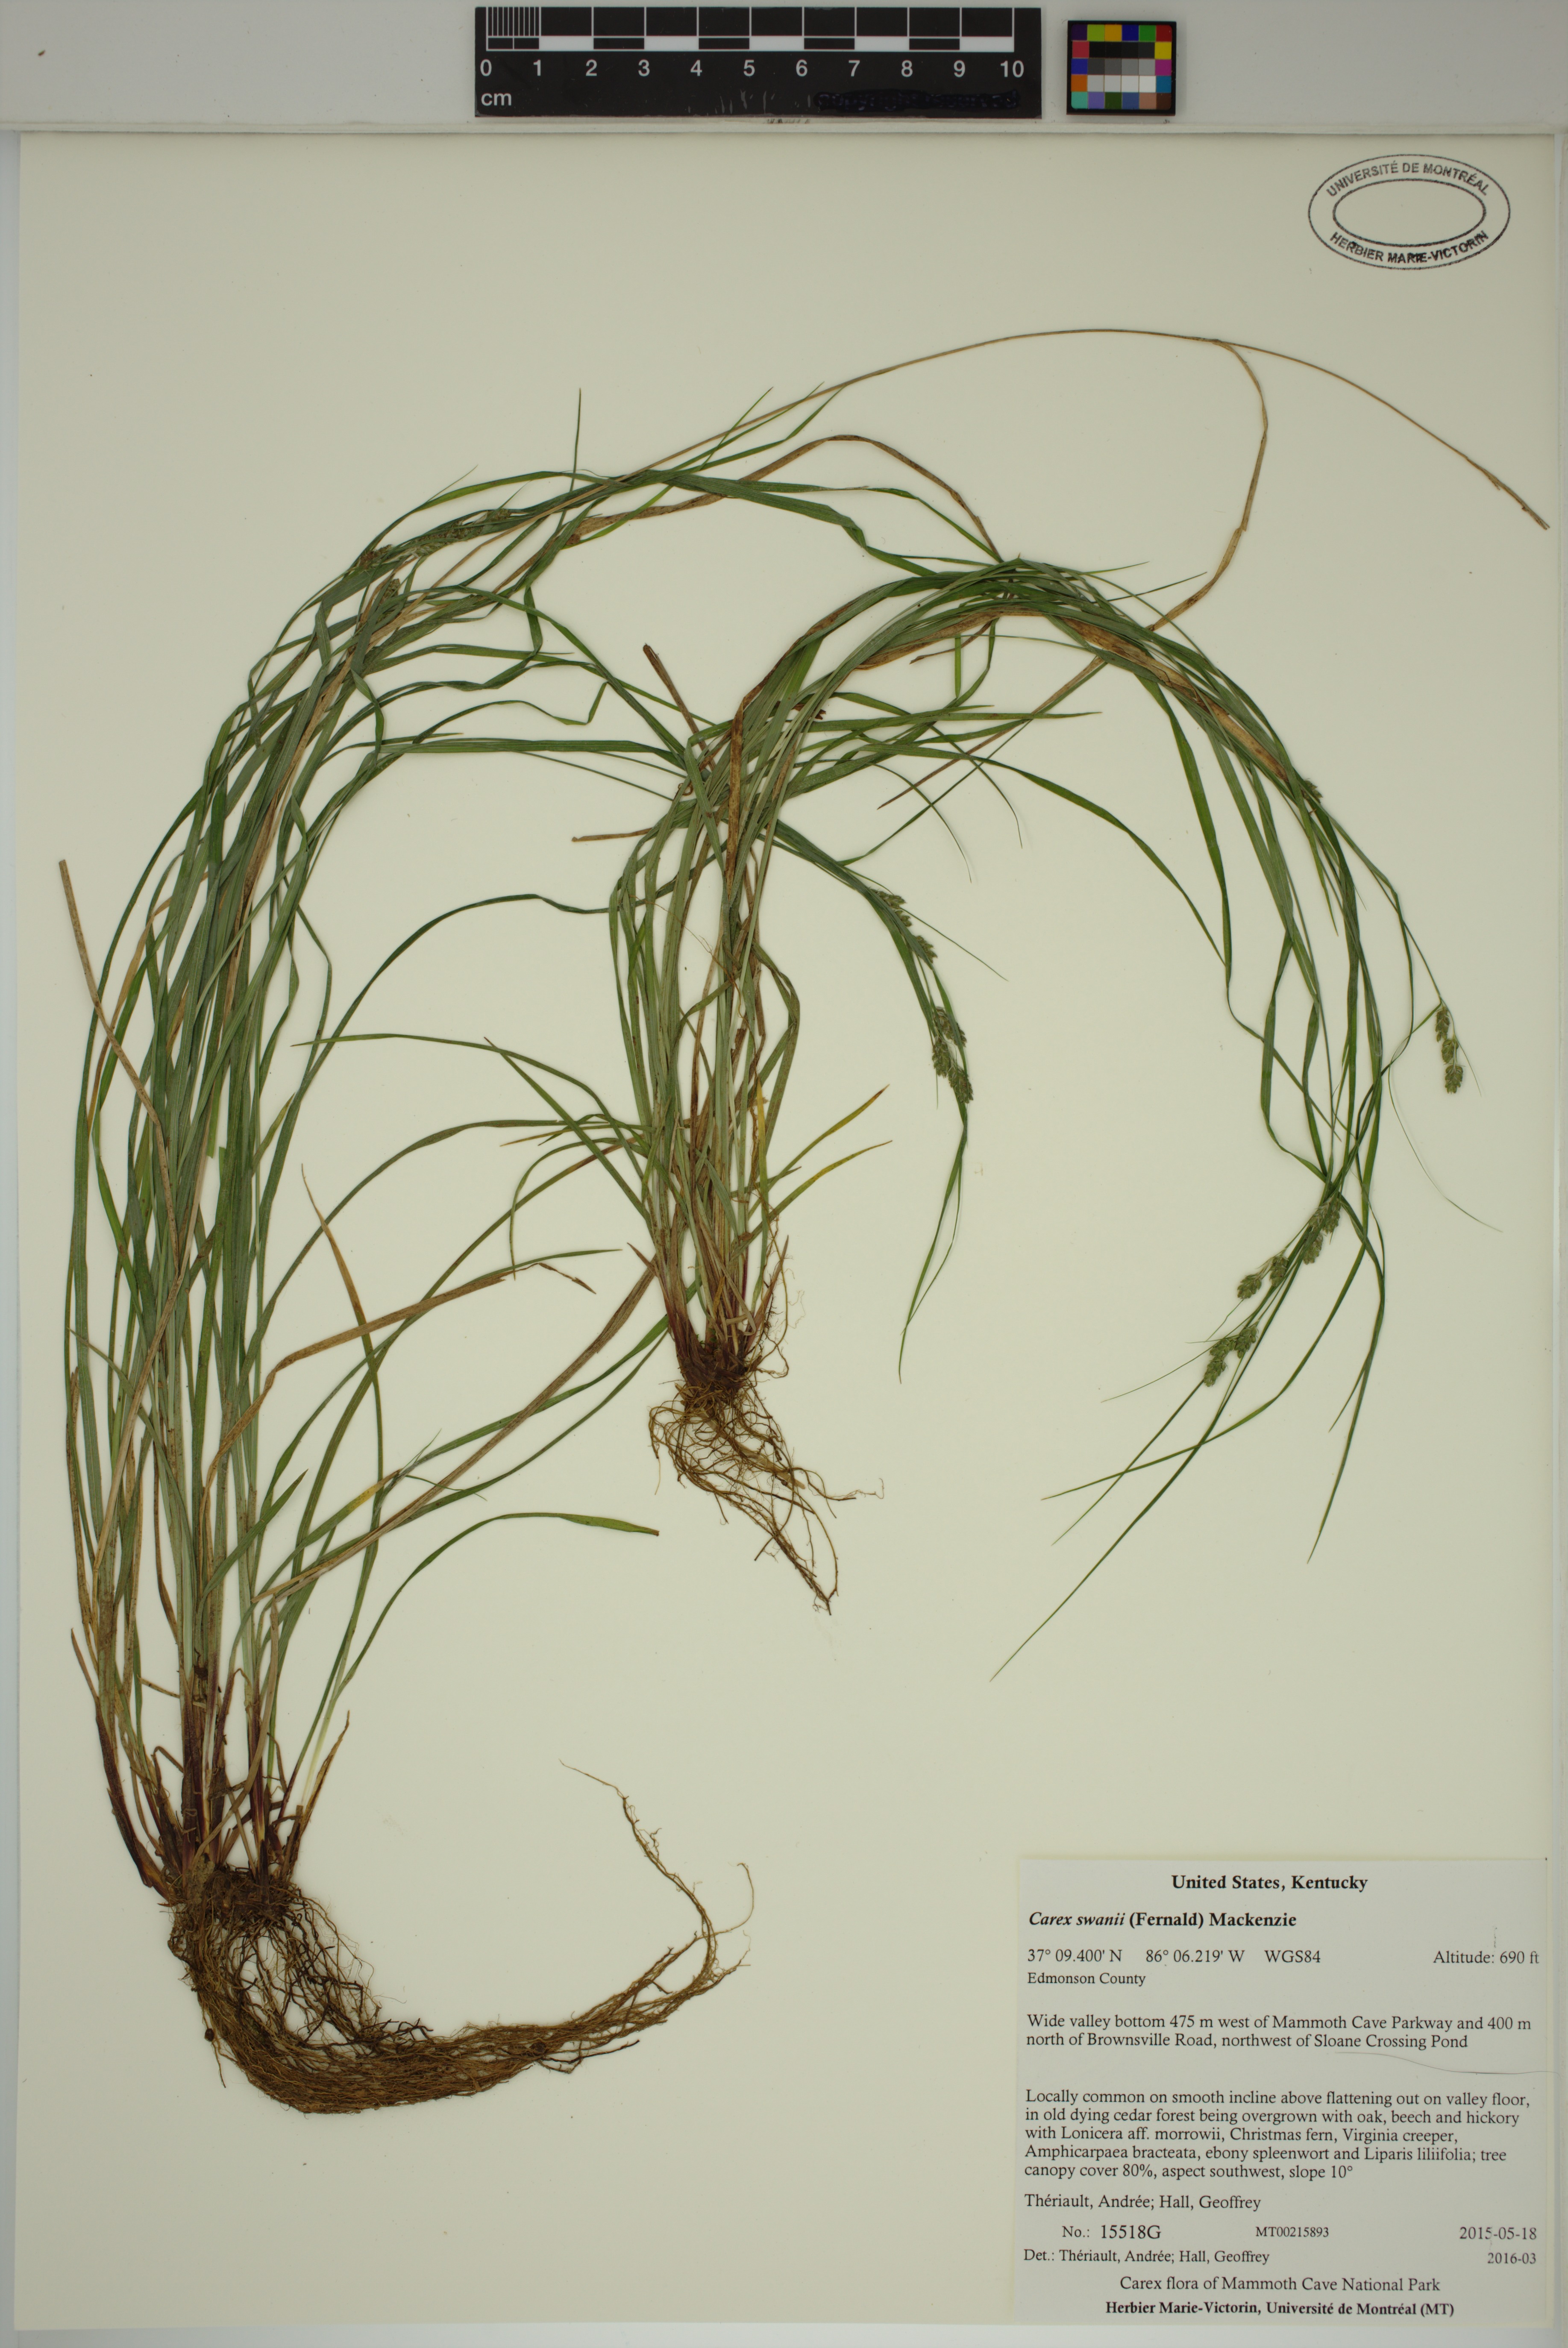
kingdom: Plantae
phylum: Tracheophyta
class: Liliopsida
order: Poales
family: Cyperaceae
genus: Carex
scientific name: Carex swanii
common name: Downy green sedge
